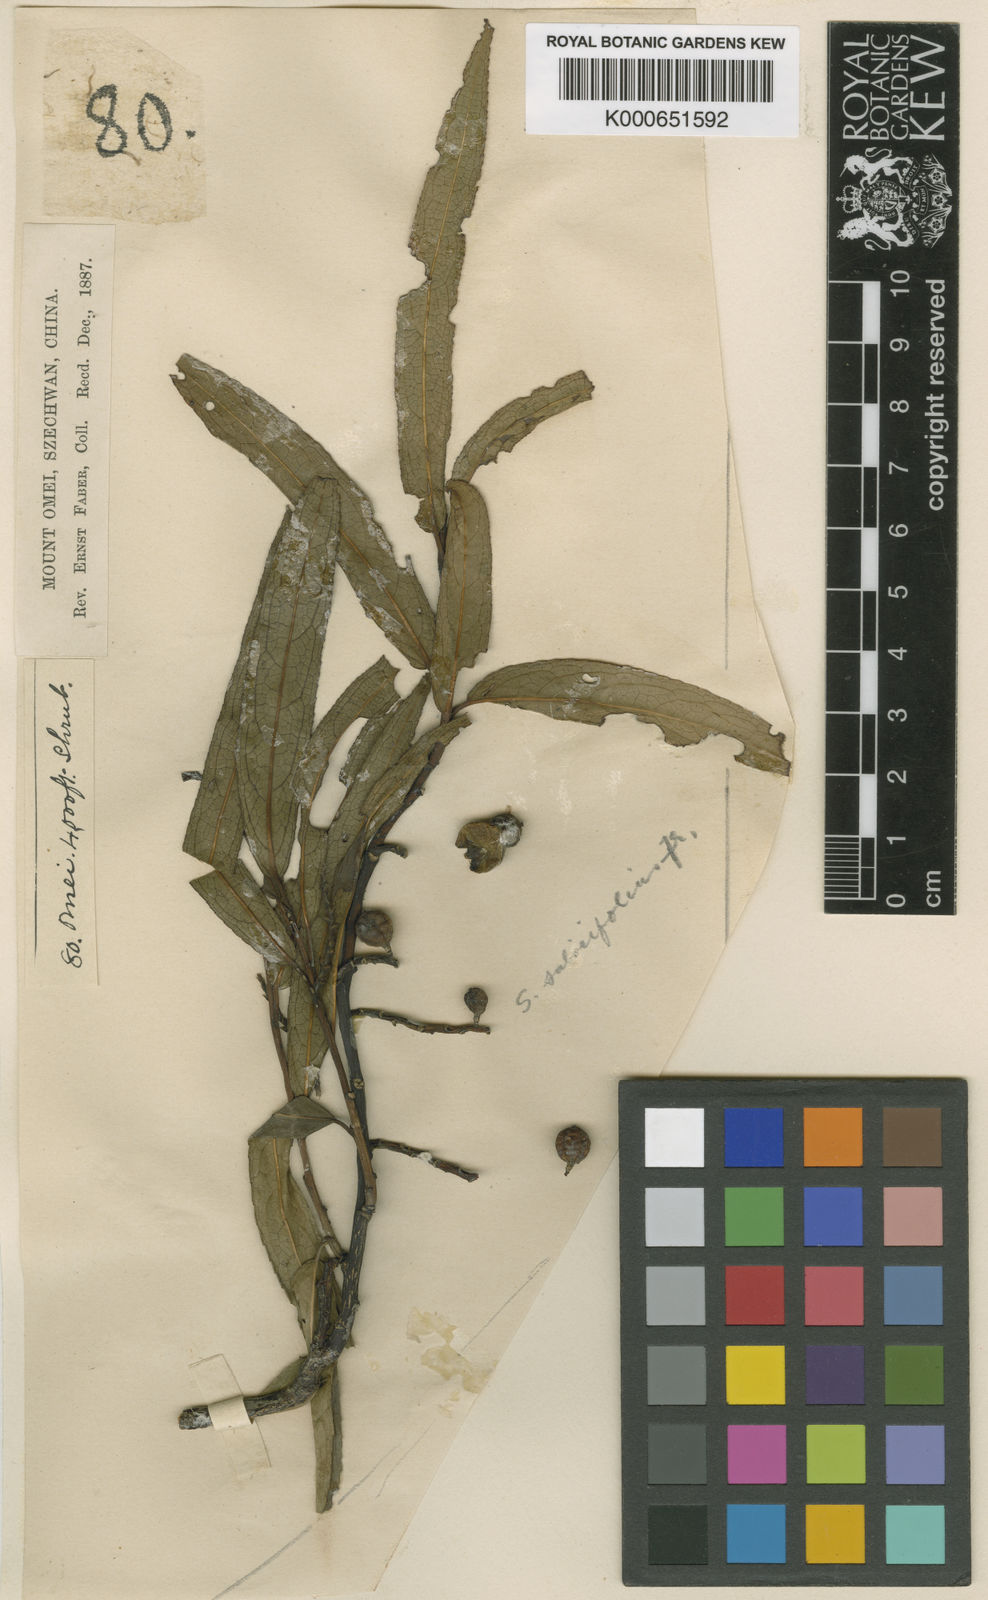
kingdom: Plantae
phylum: Tracheophyta
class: Magnoliopsida
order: Crossosomatales
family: Stachyuraceae
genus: Stachyurus
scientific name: Stachyurus salicifolius
